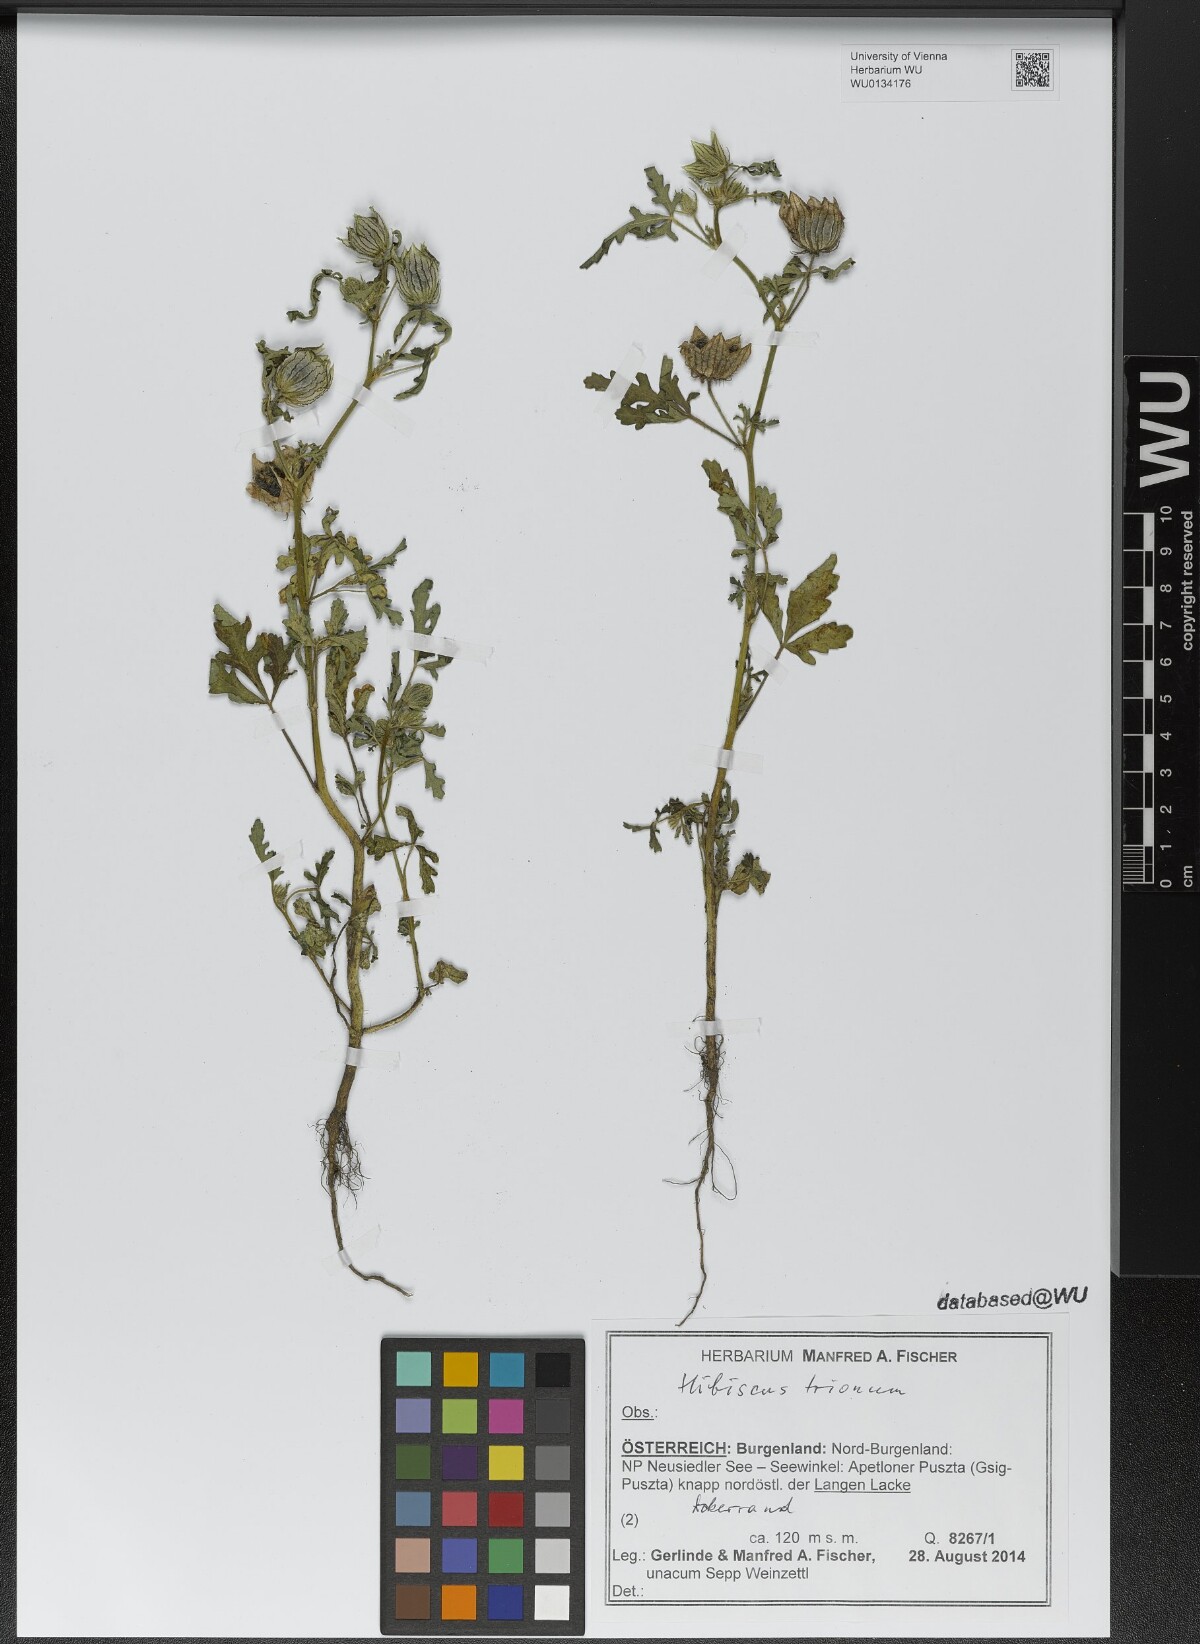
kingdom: Plantae
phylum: Tracheophyta
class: Magnoliopsida
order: Malvales
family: Malvaceae
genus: Hibiscus
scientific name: Hibiscus trionum
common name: Bladder ketmia
